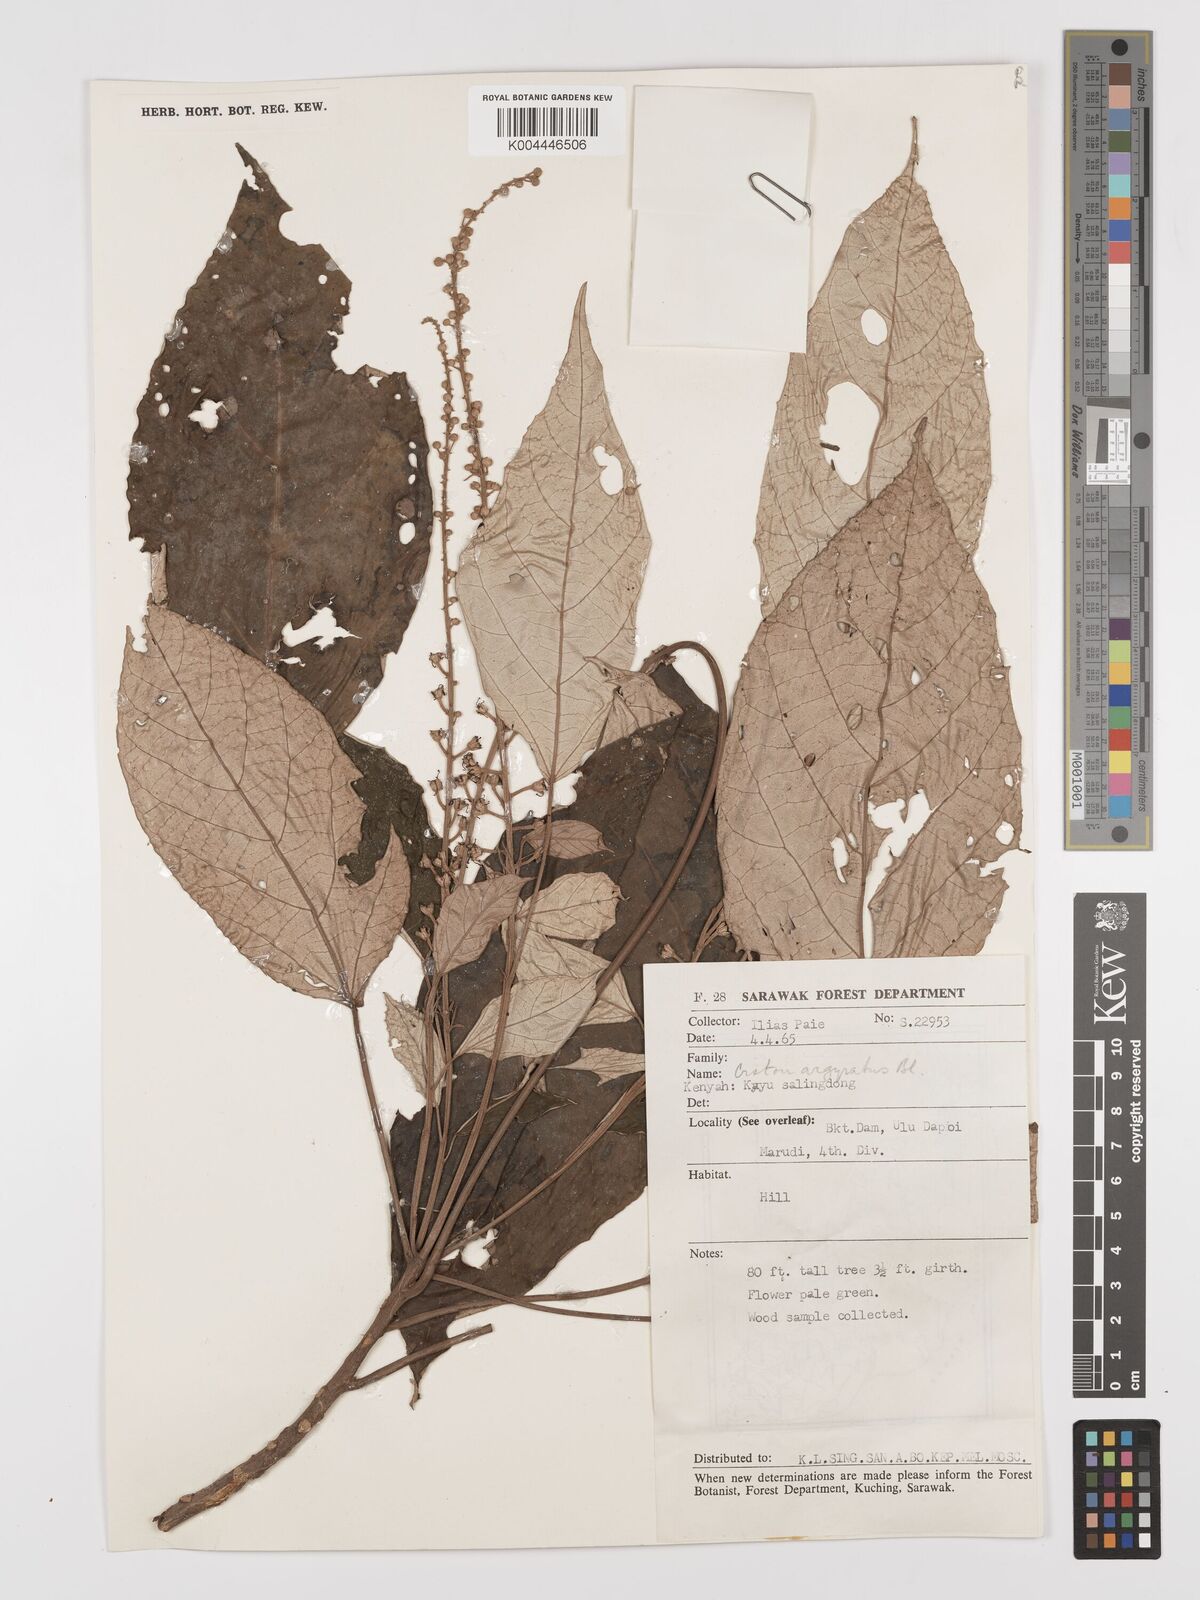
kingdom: Plantae
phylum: Tracheophyta
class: Magnoliopsida
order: Malpighiales
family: Euphorbiaceae
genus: Croton
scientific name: Croton argyratus
